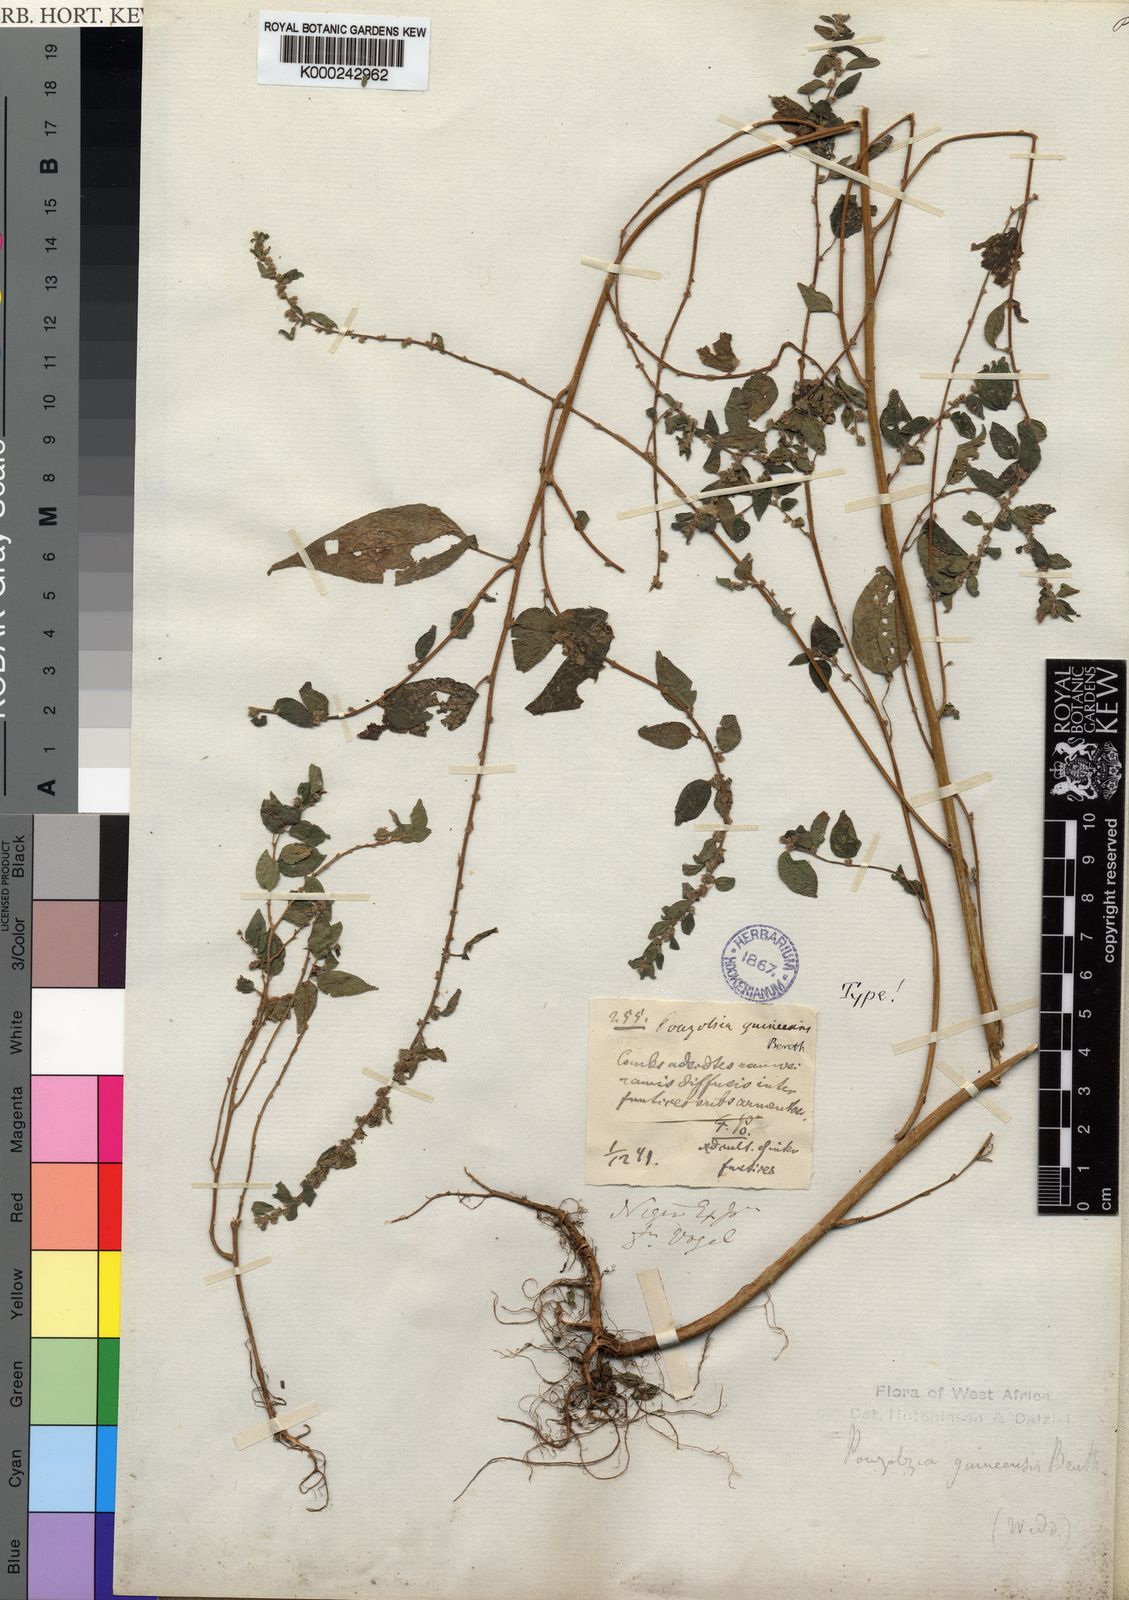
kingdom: Plantae
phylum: Tracheophyta
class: Magnoliopsida
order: Rosales
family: Urticaceae
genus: Pouzolzia
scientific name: Pouzolzia guineensis
